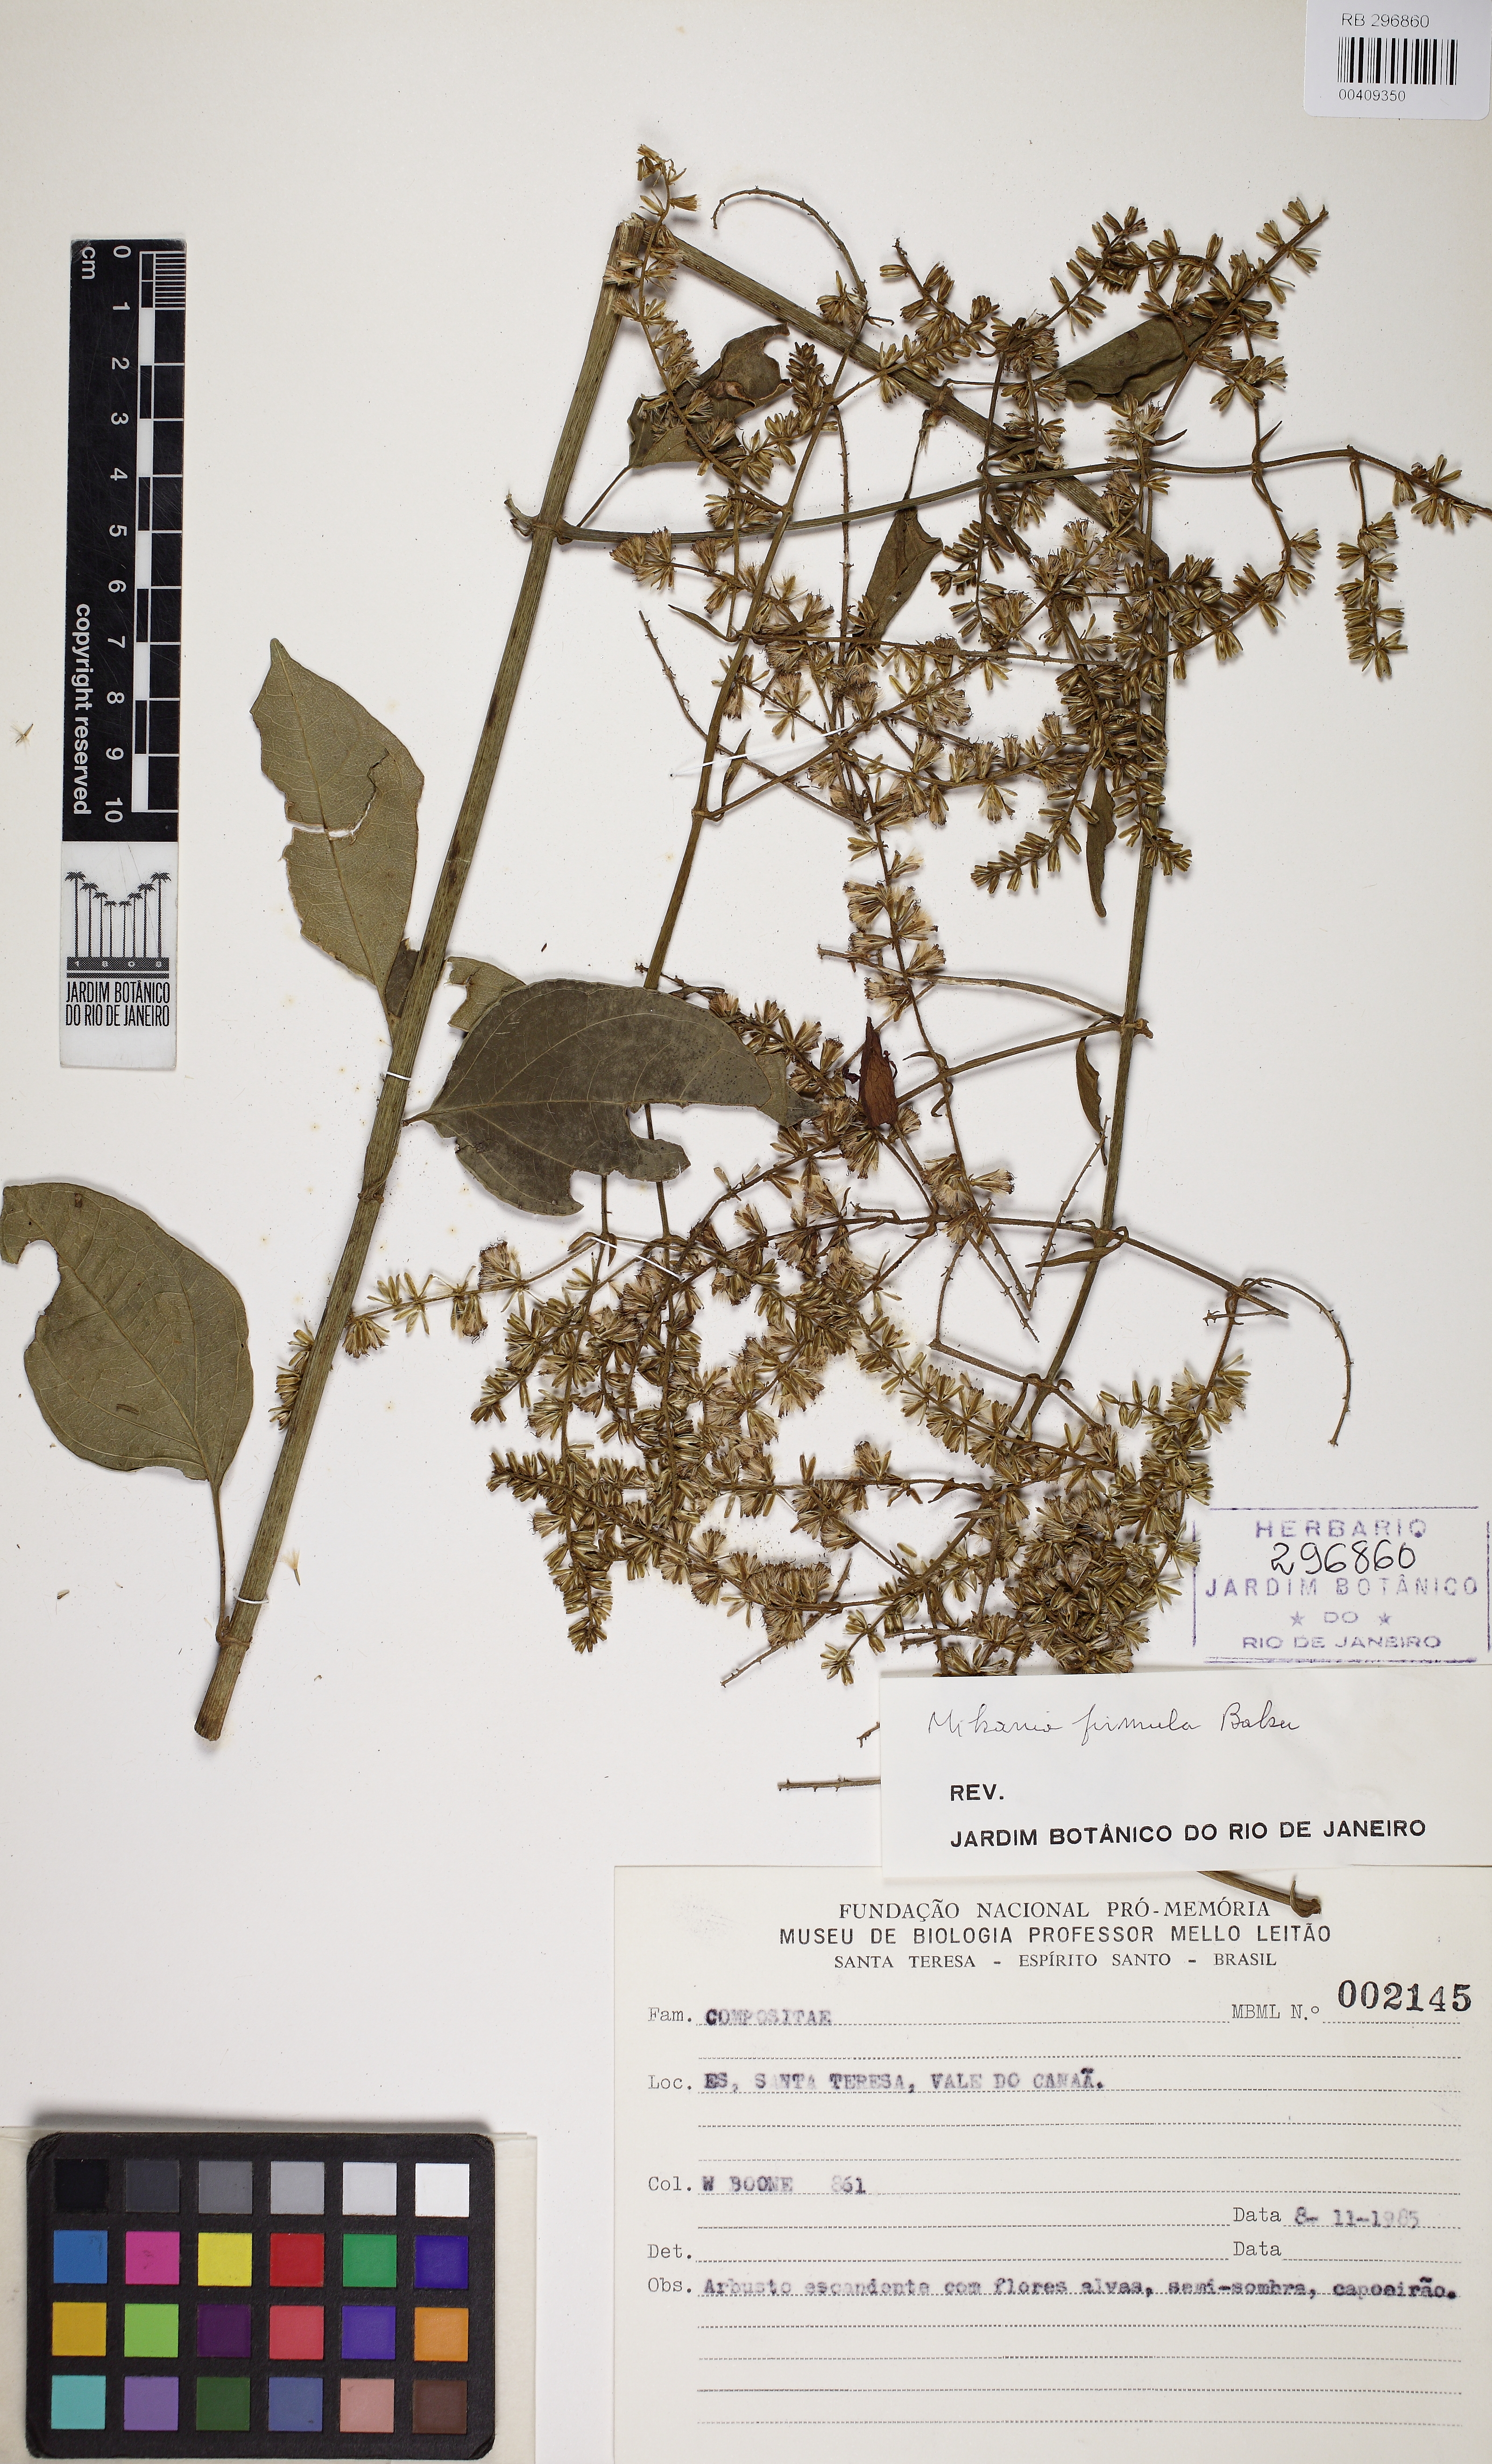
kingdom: Plantae
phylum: Tracheophyta
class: Magnoliopsida
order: Asterales
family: Asteraceae
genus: Mikania
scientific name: Mikania firmula
